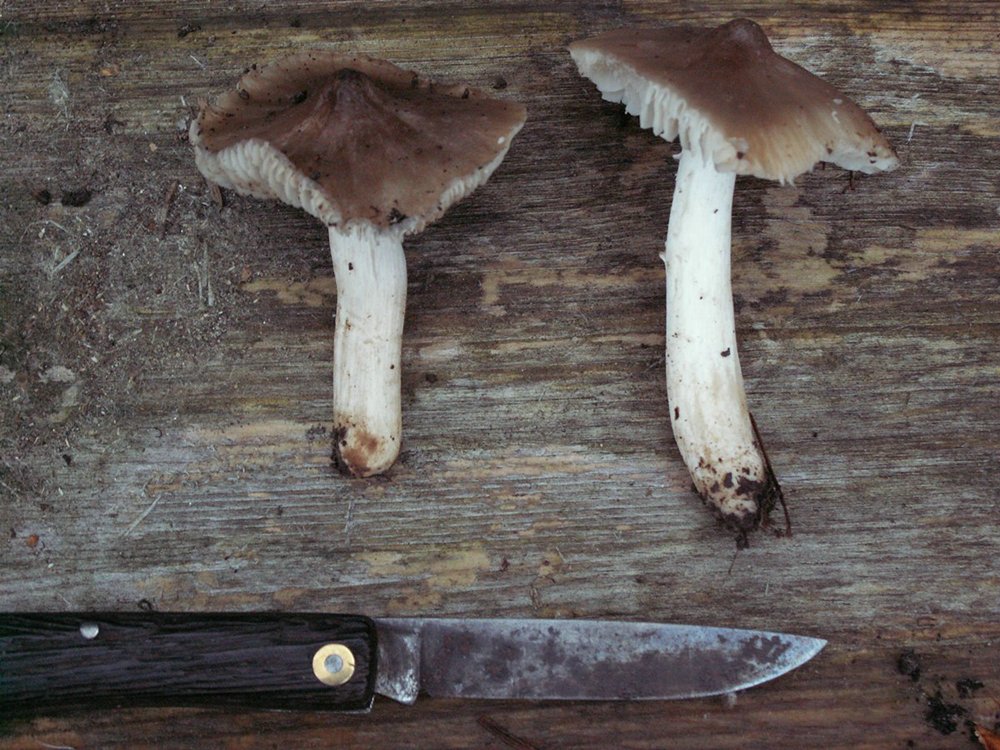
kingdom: Fungi
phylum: Basidiomycota
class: Agaricomycetes
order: Agaricales
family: Hygrophoraceae
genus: Cuphophyllus
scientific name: Cuphophyllus fornicatus
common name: gråbrun vokshat
